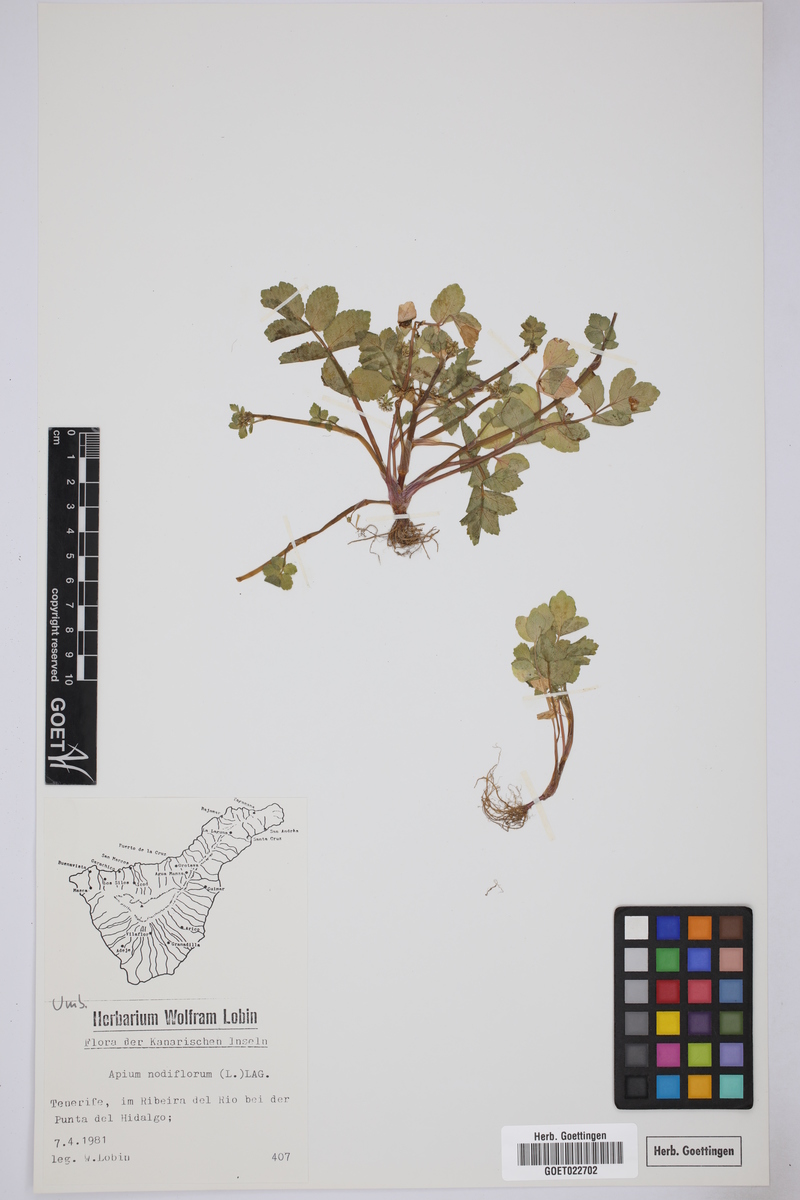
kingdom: Plantae
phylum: Tracheophyta
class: Magnoliopsida
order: Apiales
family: Apiaceae
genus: Helosciadium
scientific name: Helosciadium nodiflorum
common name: Fool's-watercress
